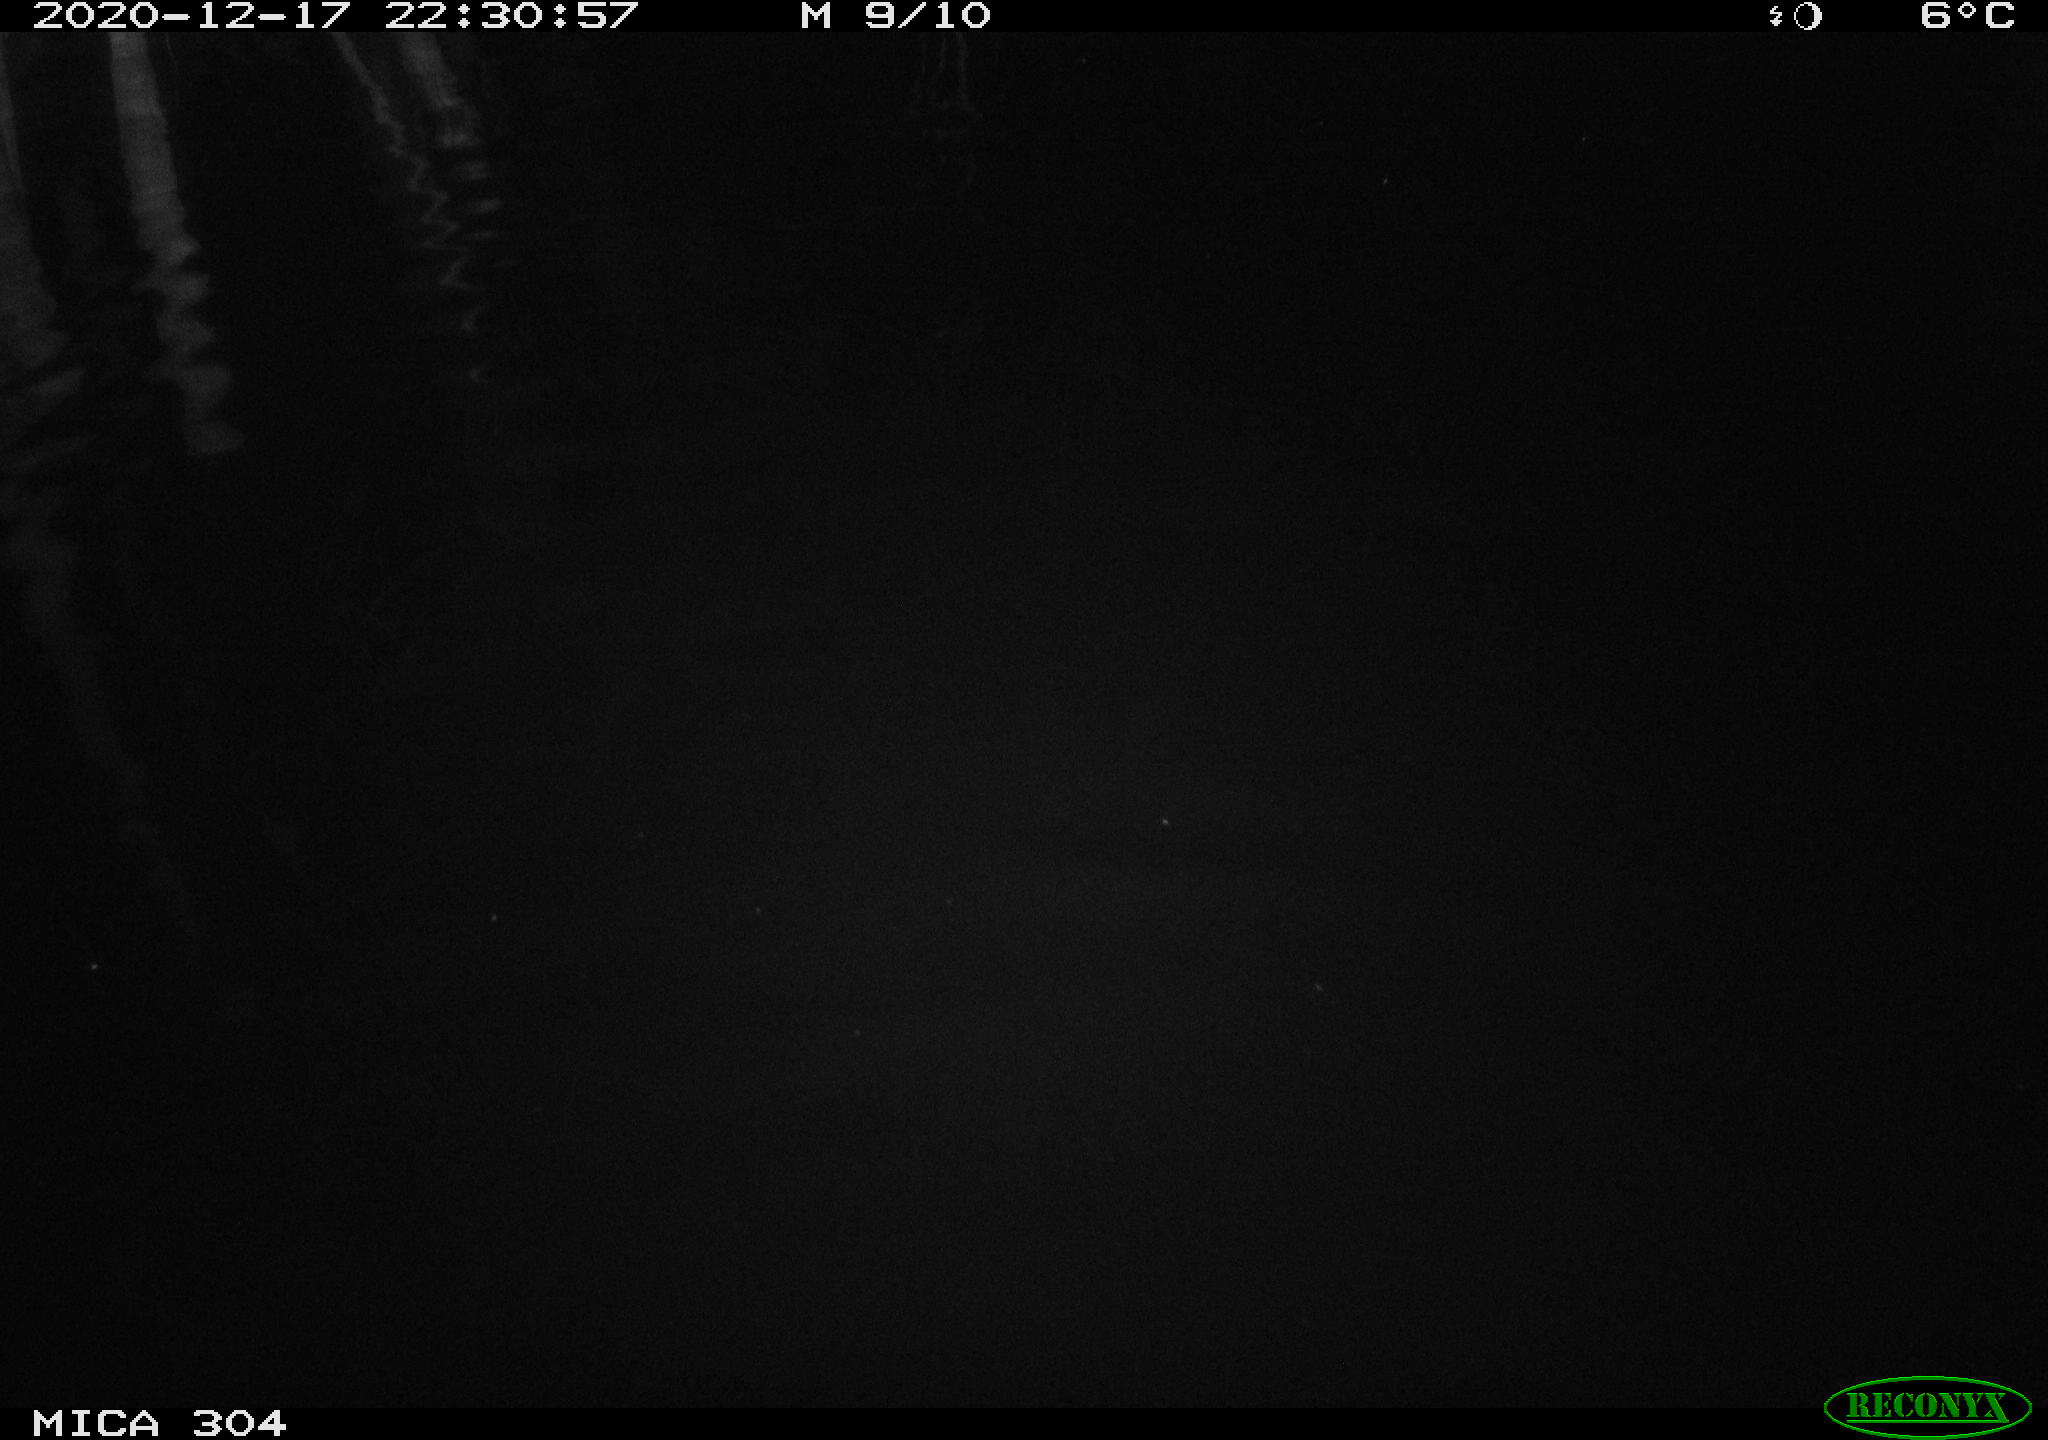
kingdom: Animalia
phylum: Chordata
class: Mammalia
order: Rodentia
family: Muridae
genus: Rattus
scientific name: Rattus norvegicus
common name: Brown rat
